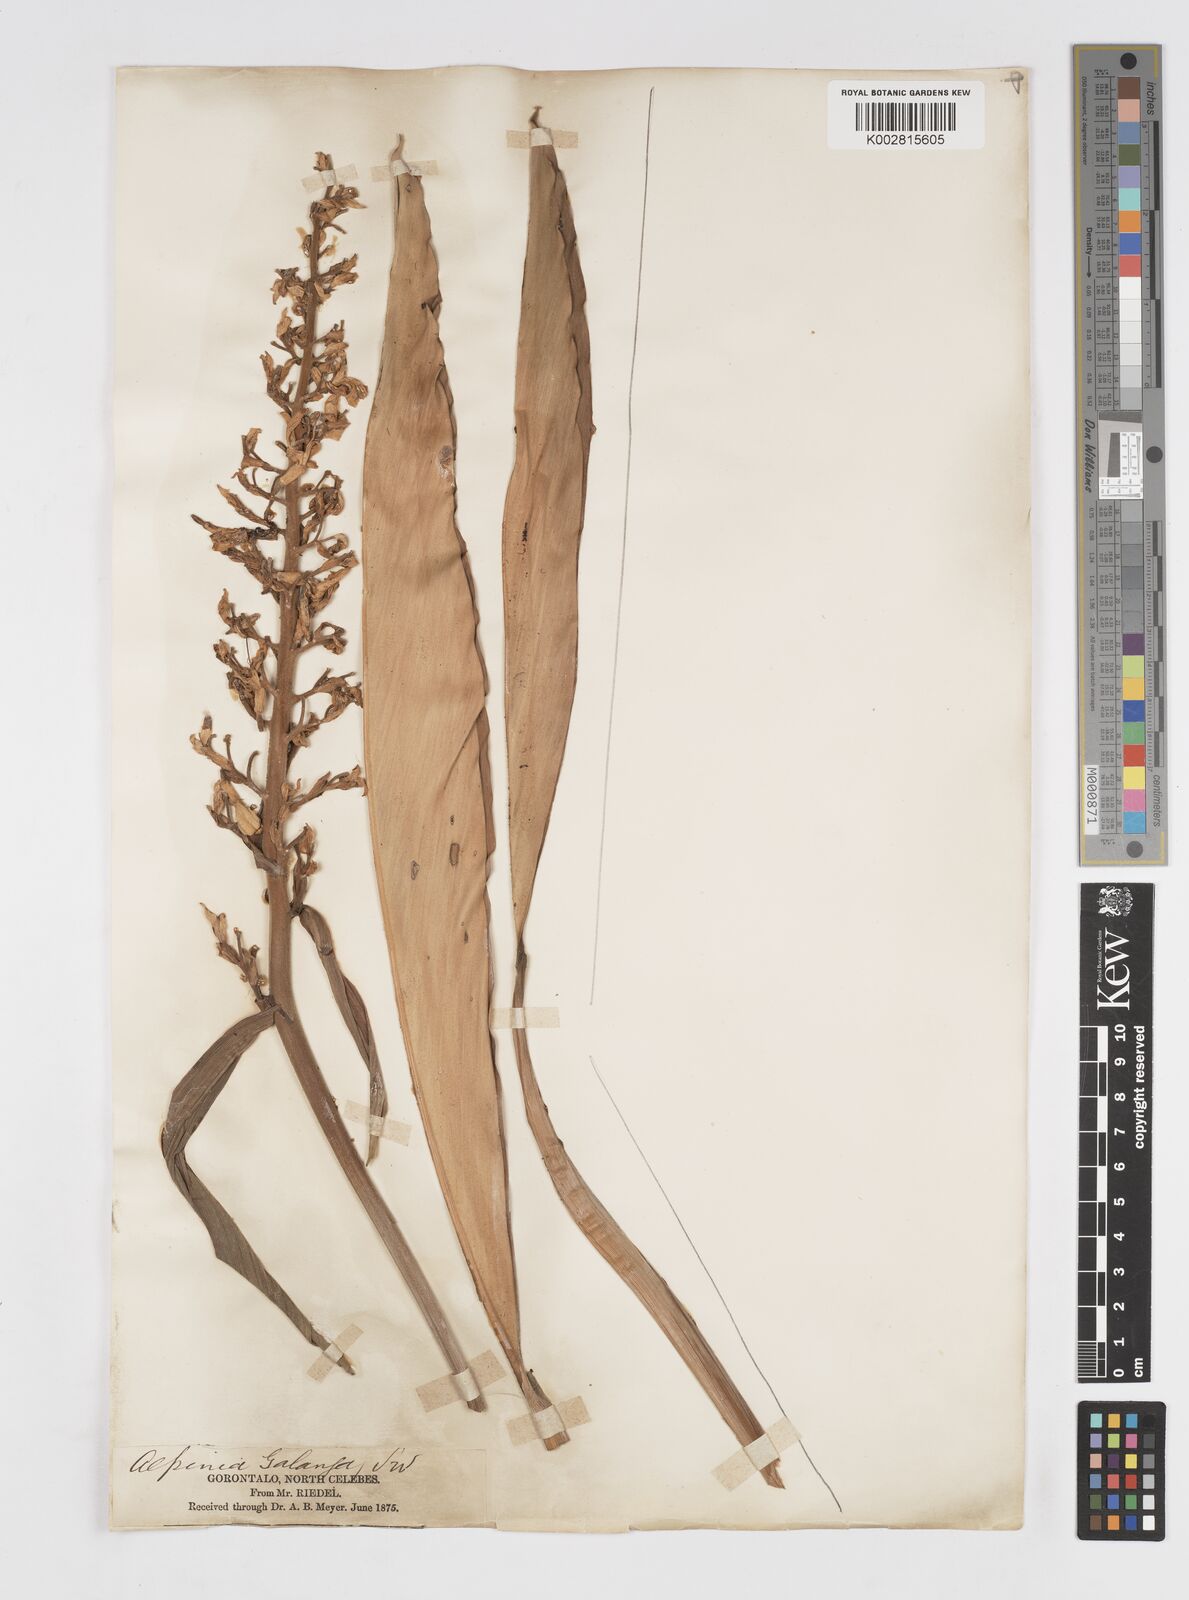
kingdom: Plantae
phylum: Tracheophyta
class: Liliopsida
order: Zingiberales
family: Zingiberaceae
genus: Alpinia
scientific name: Alpinia galanga
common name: Siamese-ginger
